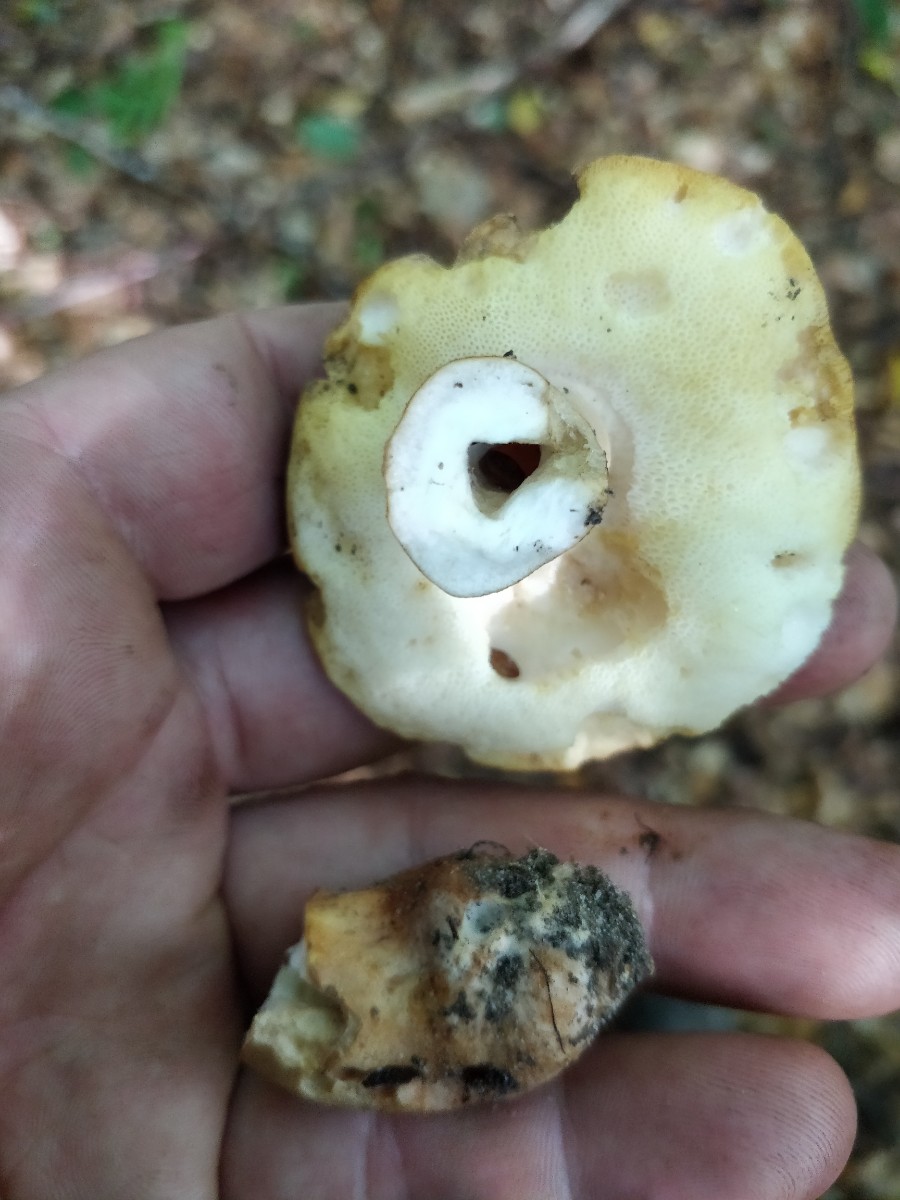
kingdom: Fungi
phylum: Basidiomycota
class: Agaricomycetes
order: Boletales
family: Gyroporaceae
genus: Gyroporus
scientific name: Gyroporus castaneus
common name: kastanie-kammerrørhat
